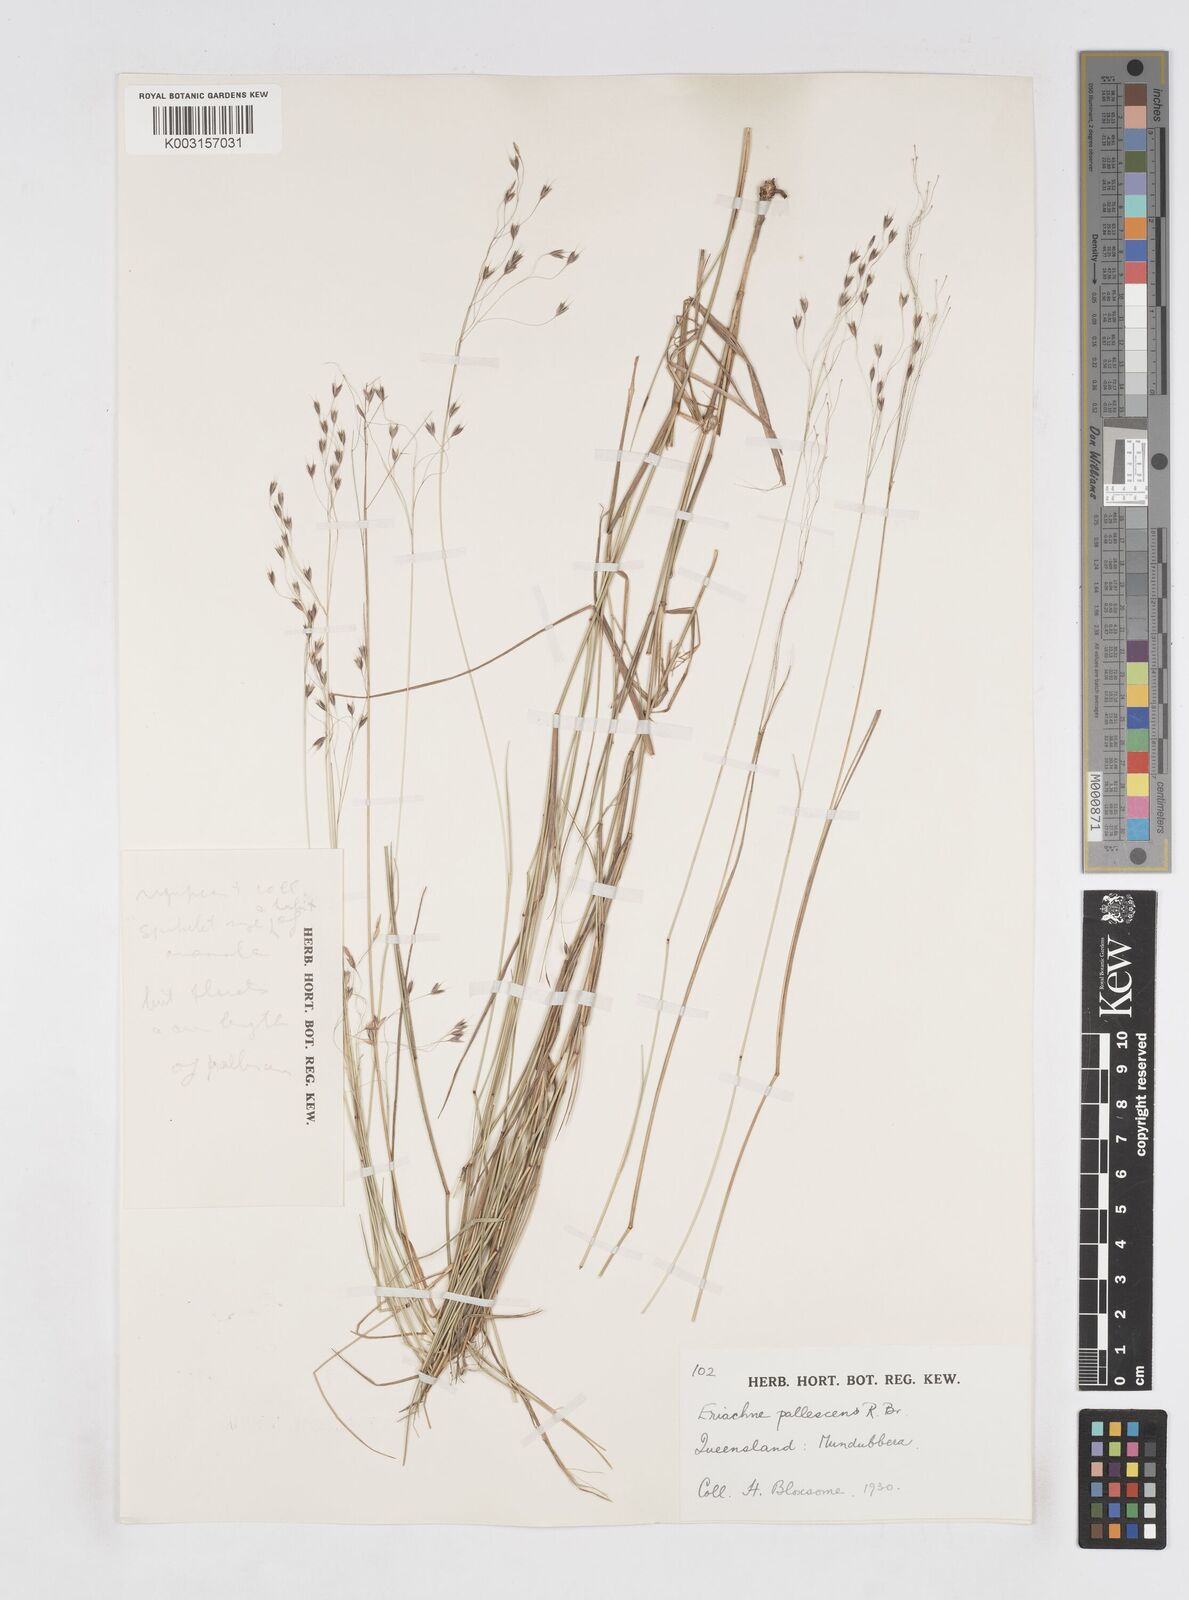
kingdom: Plantae
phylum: Tracheophyta
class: Liliopsida
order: Poales
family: Poaceae
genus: Eriachne
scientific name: Eriachne pallescens
